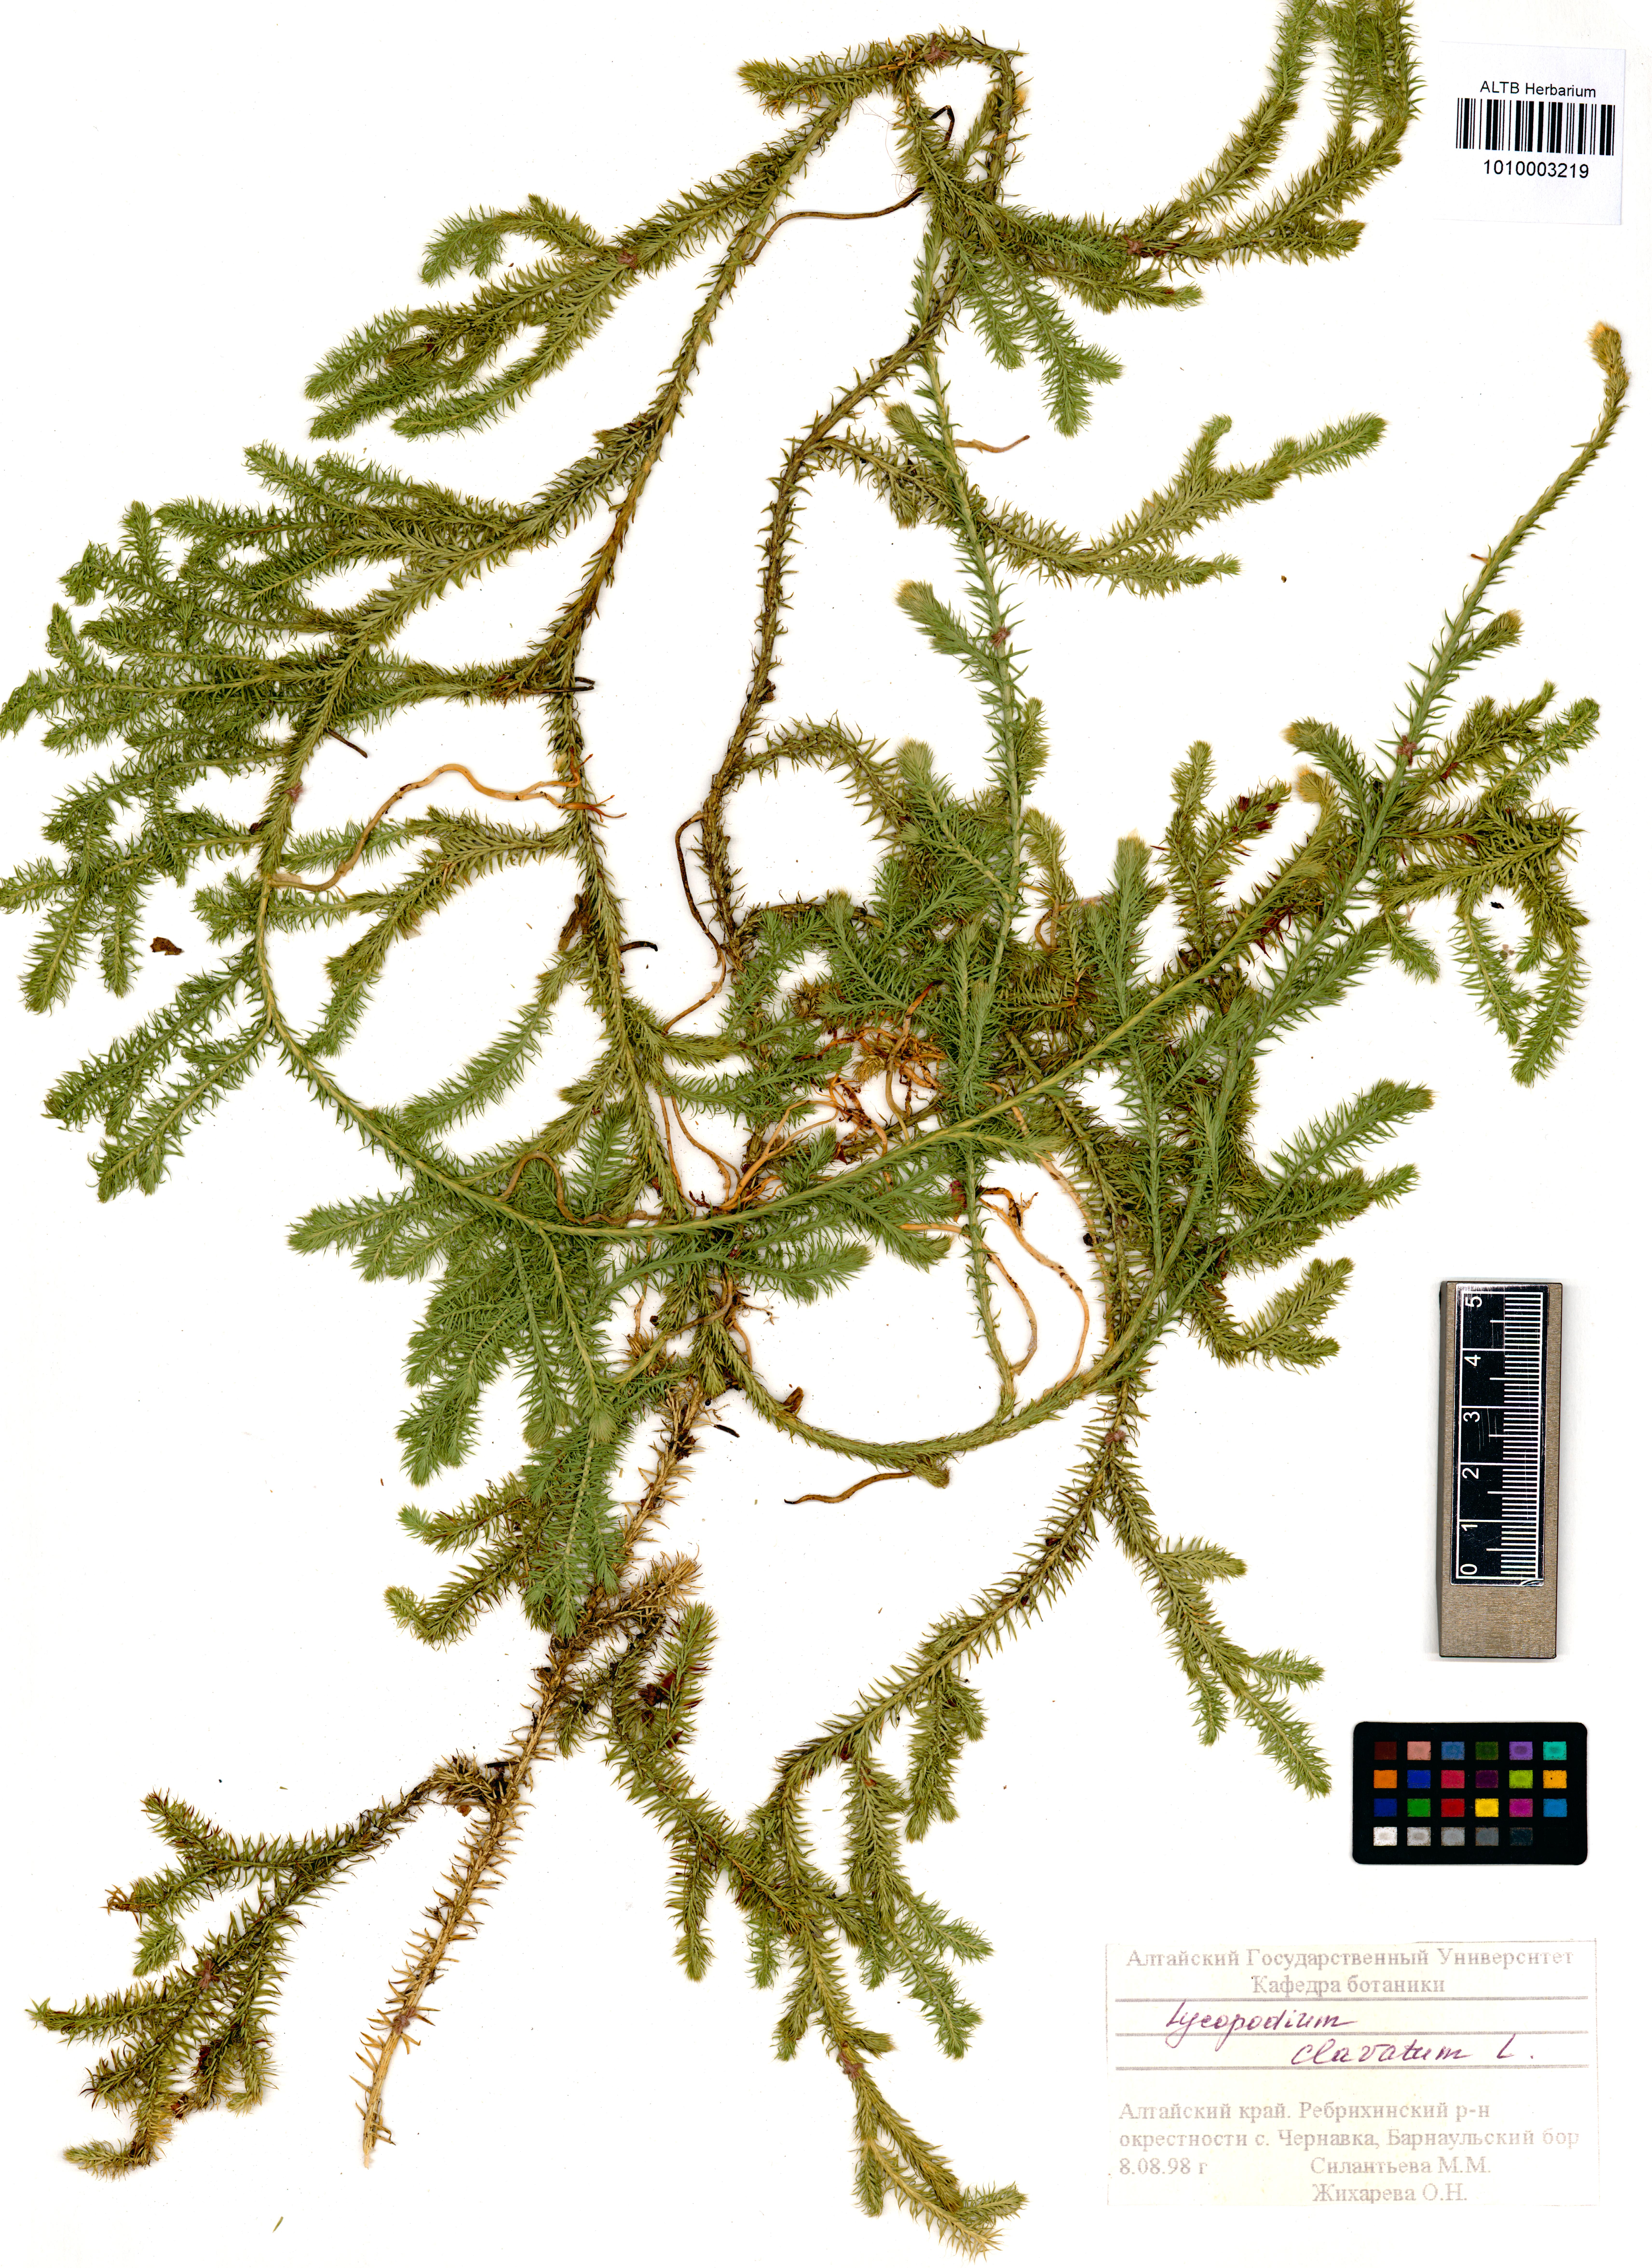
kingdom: Plantae
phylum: Tracheophyta
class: Lycopodiopsida
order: Lycopodiales
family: Lycopodiaceae
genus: Lycopodium
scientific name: Lycopodium clavatum
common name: Stag's-horn clubmoss
